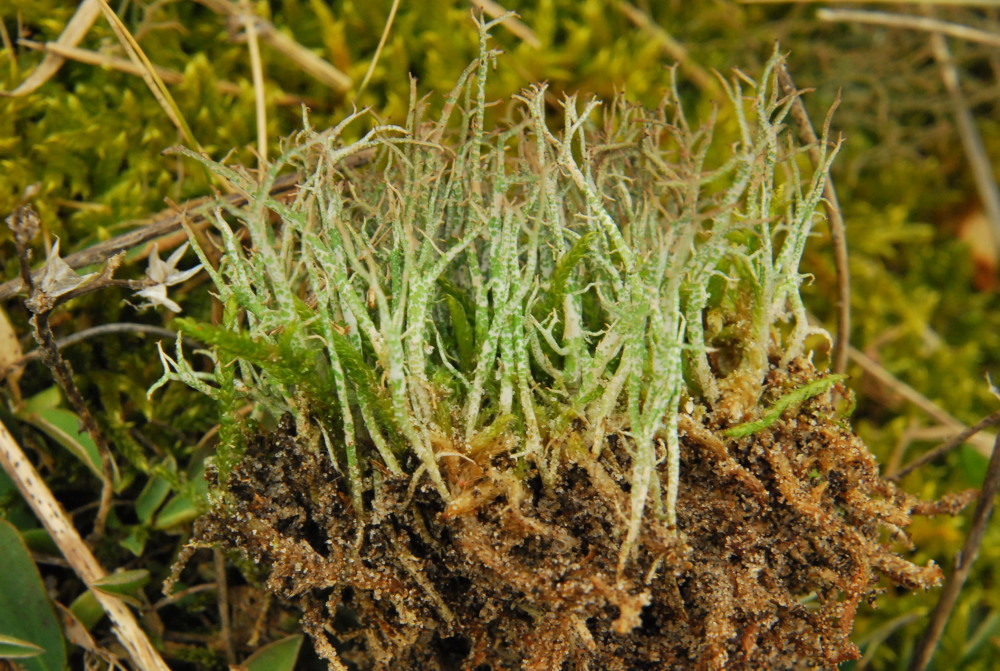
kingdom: Fungi
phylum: Ascomycota
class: Lecanoromycetes
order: Lecanorales
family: Cladoniaceae
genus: Cladonia
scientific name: Cladonia rangiformis
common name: spættet bægerlav
